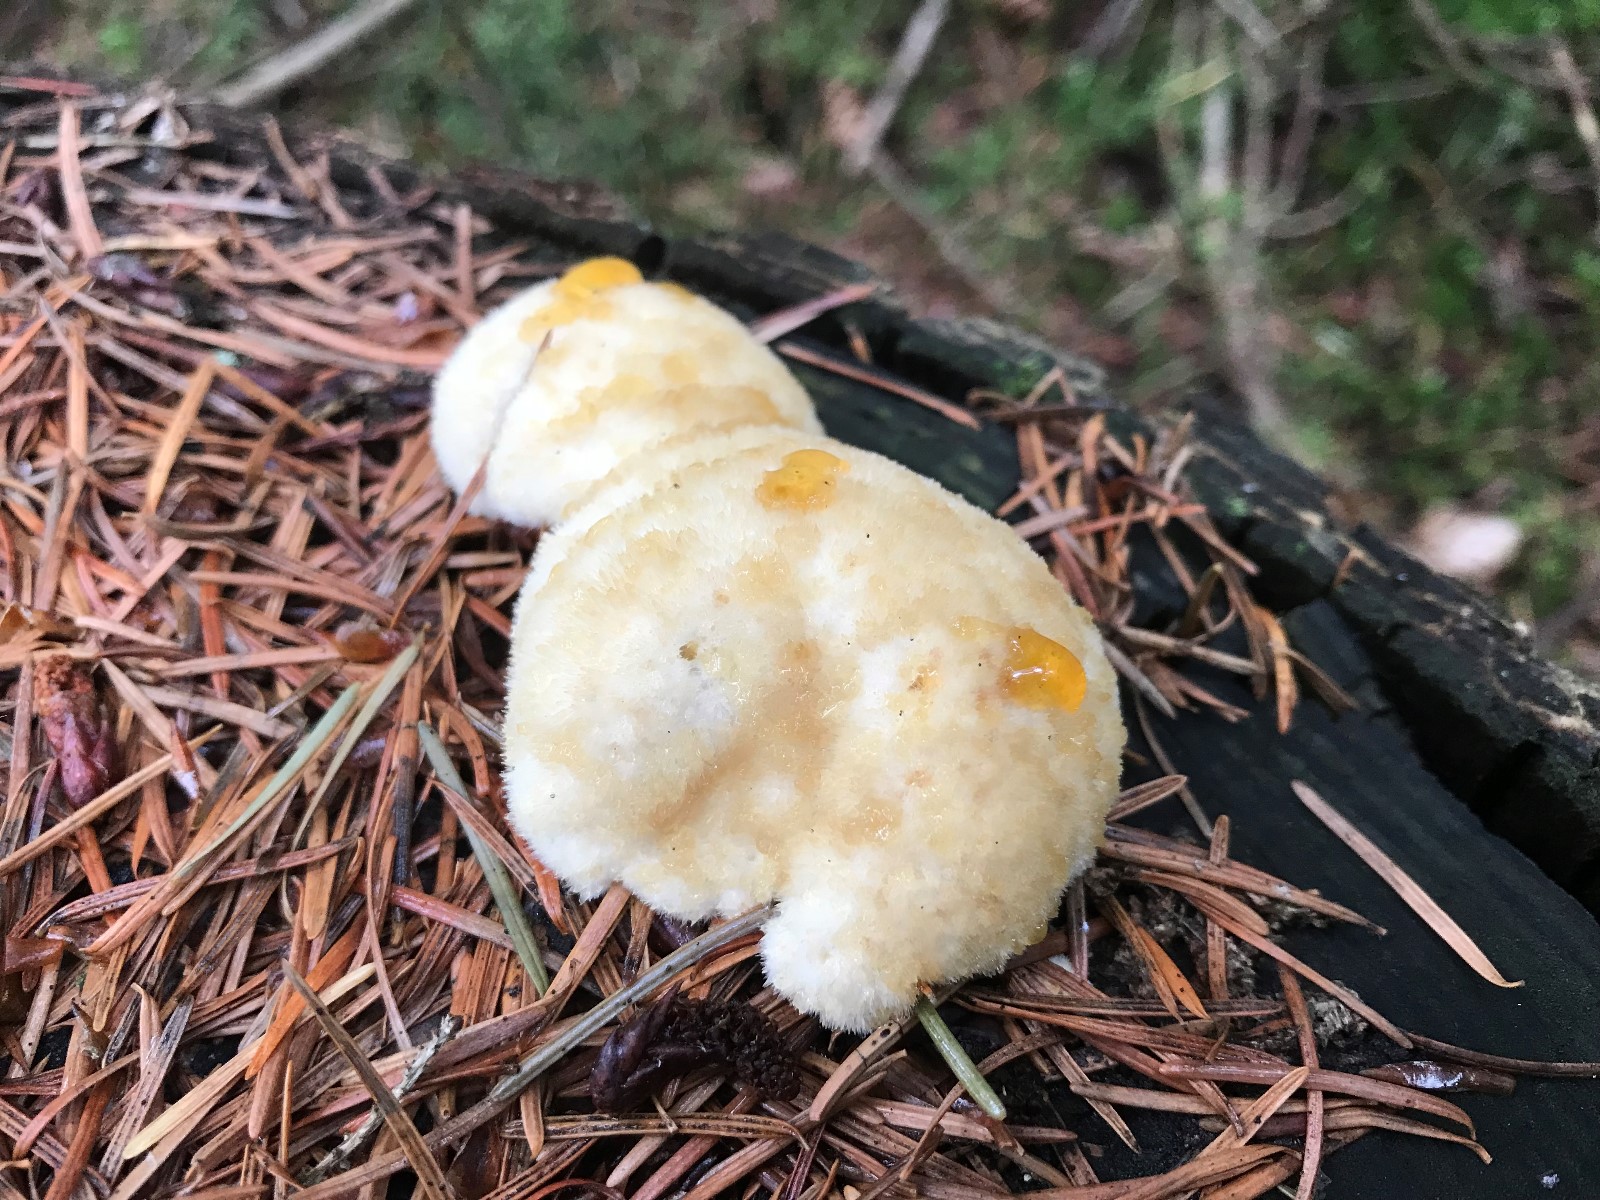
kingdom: Fungi
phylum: Basidiomycota
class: Agaricomycetes
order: Polyporales
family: Dacryobolaceae
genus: Postia
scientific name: Postia ptychogaster
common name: støvende kødporesvamp
